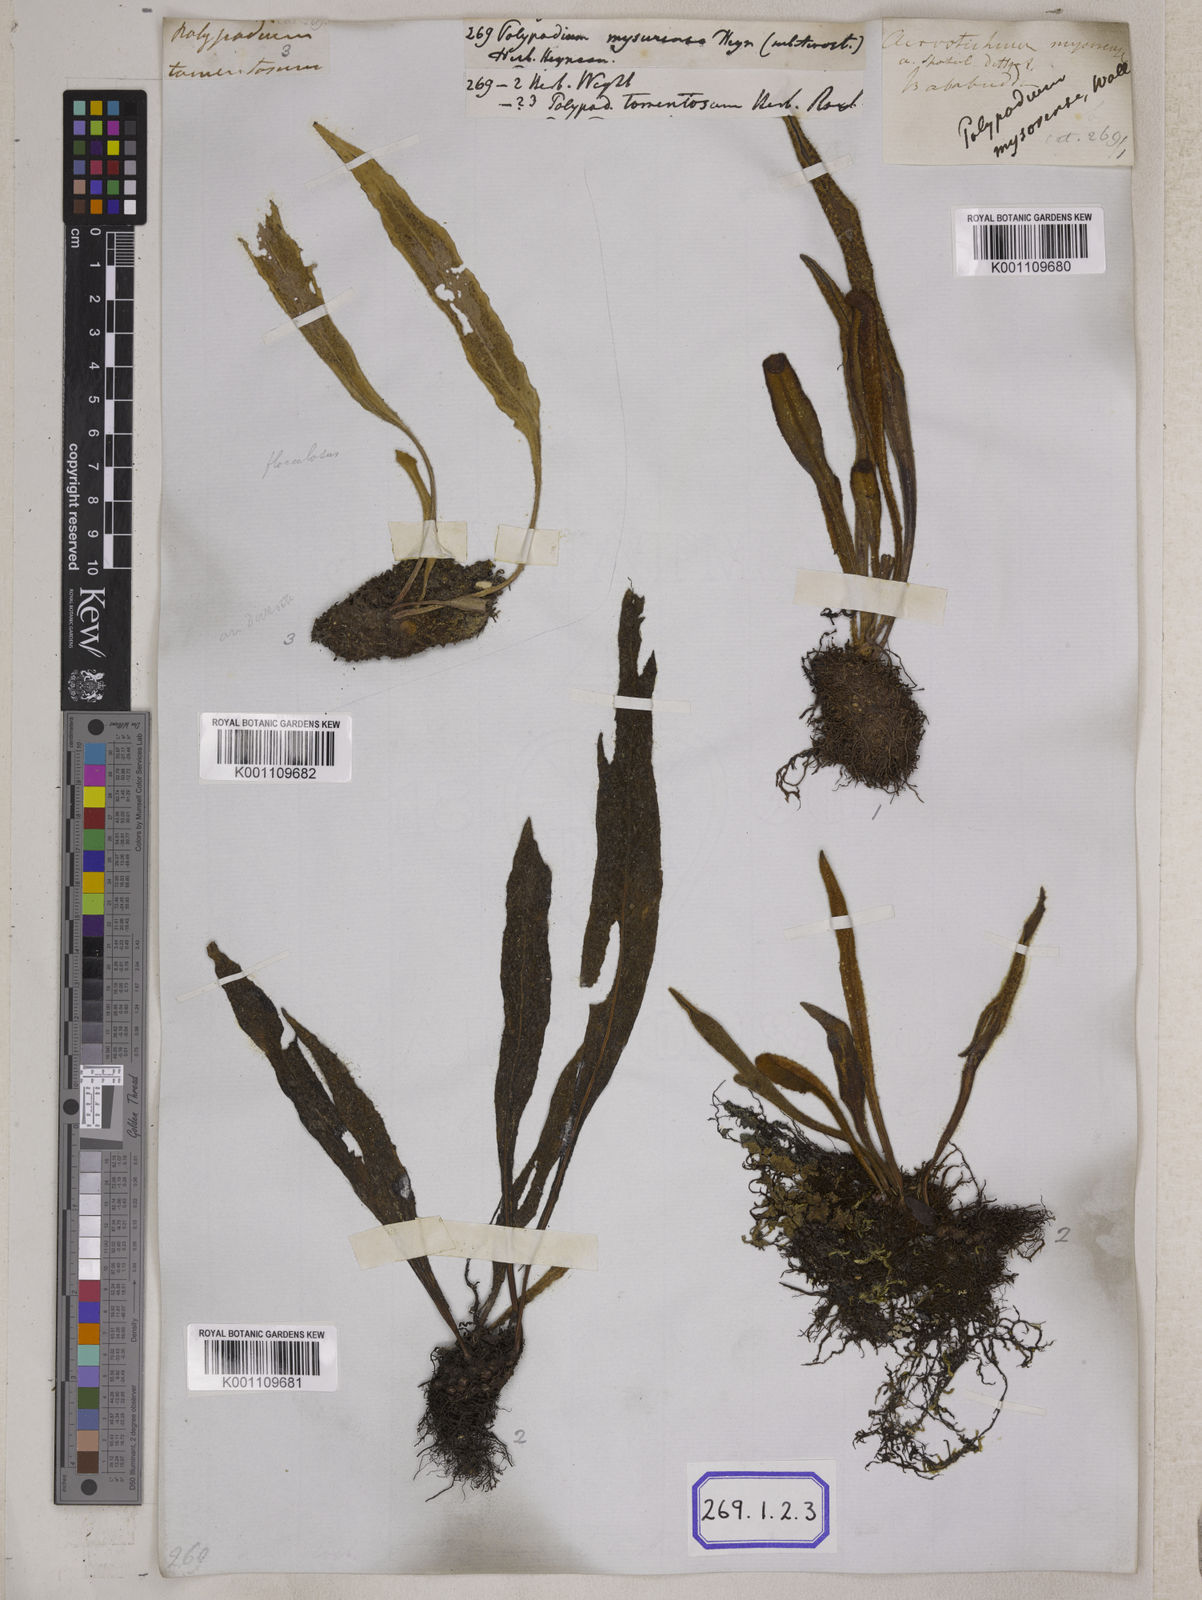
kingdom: Plantae
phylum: Tracheophyta
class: Polypodiopsida
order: Polypodiales
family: Polypodiaceae
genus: Polypodium
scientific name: Polypodium
